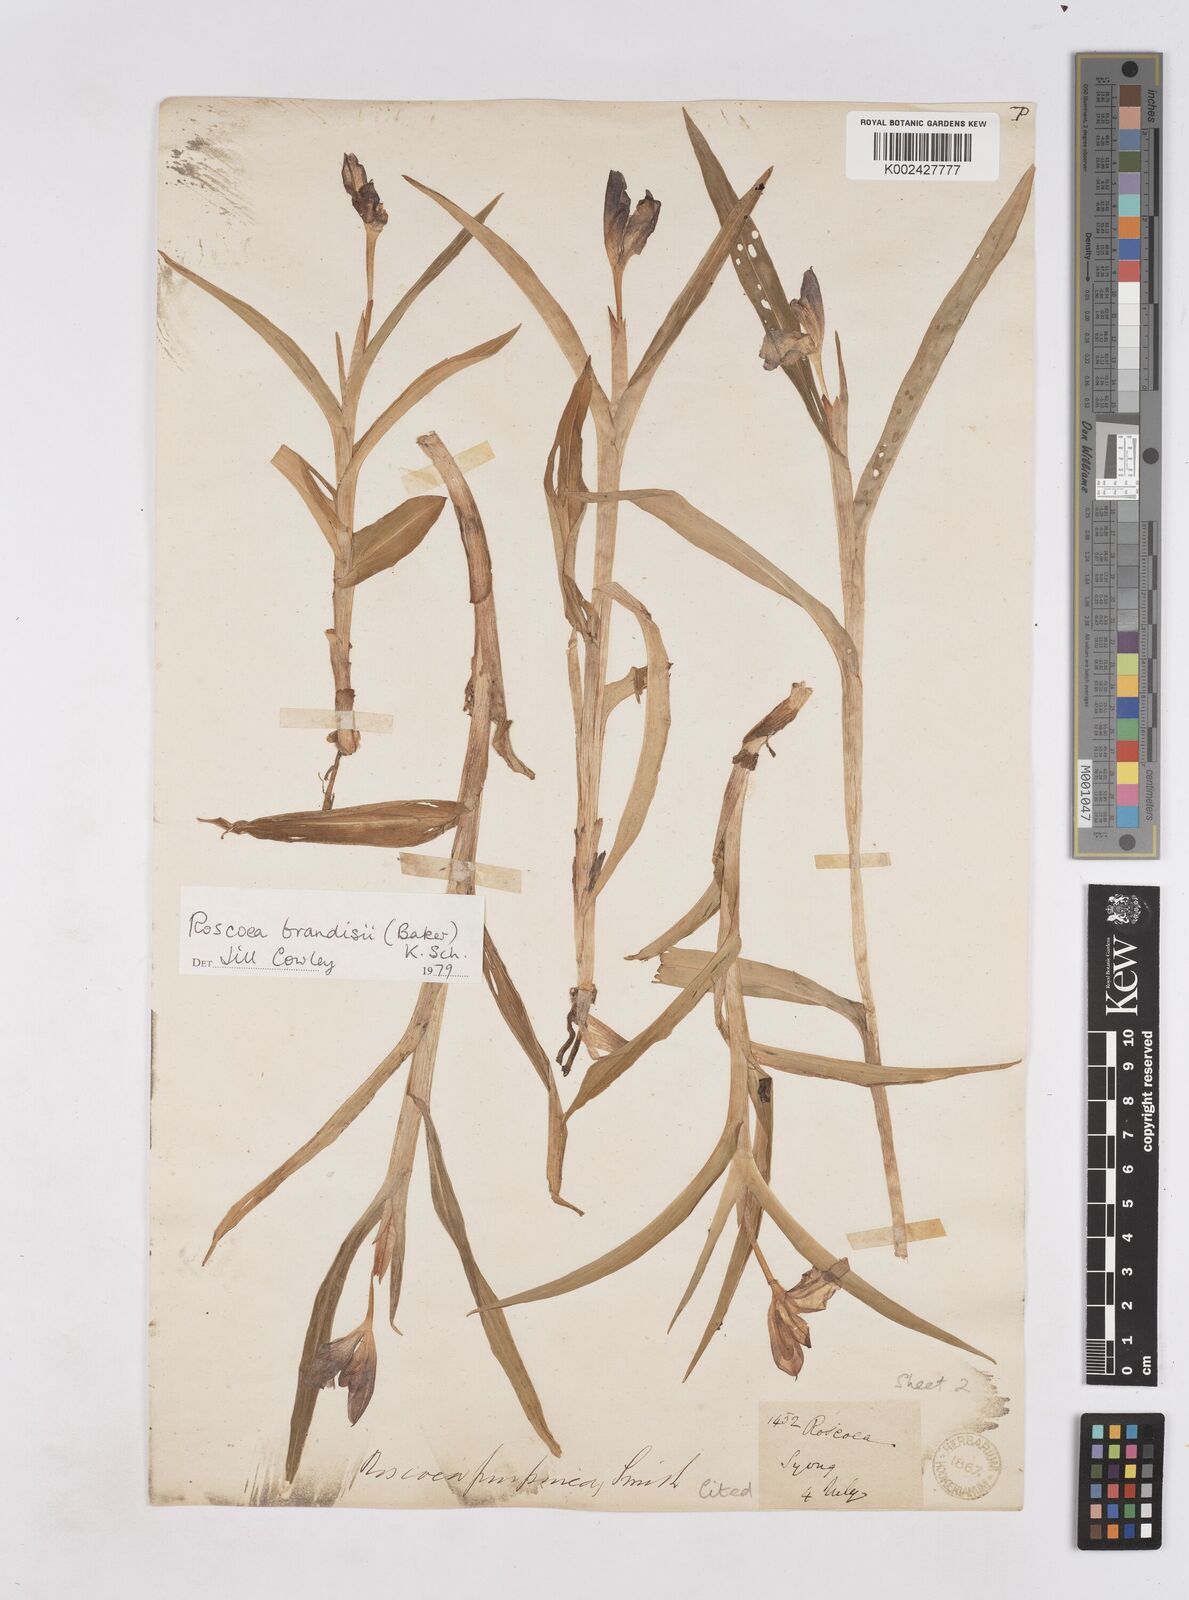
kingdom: Plantae
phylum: Tracheophyta
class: Liliopsida
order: Zingiberales
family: Zingiberaceae
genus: Roscoea
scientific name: Roscoea brandisii
